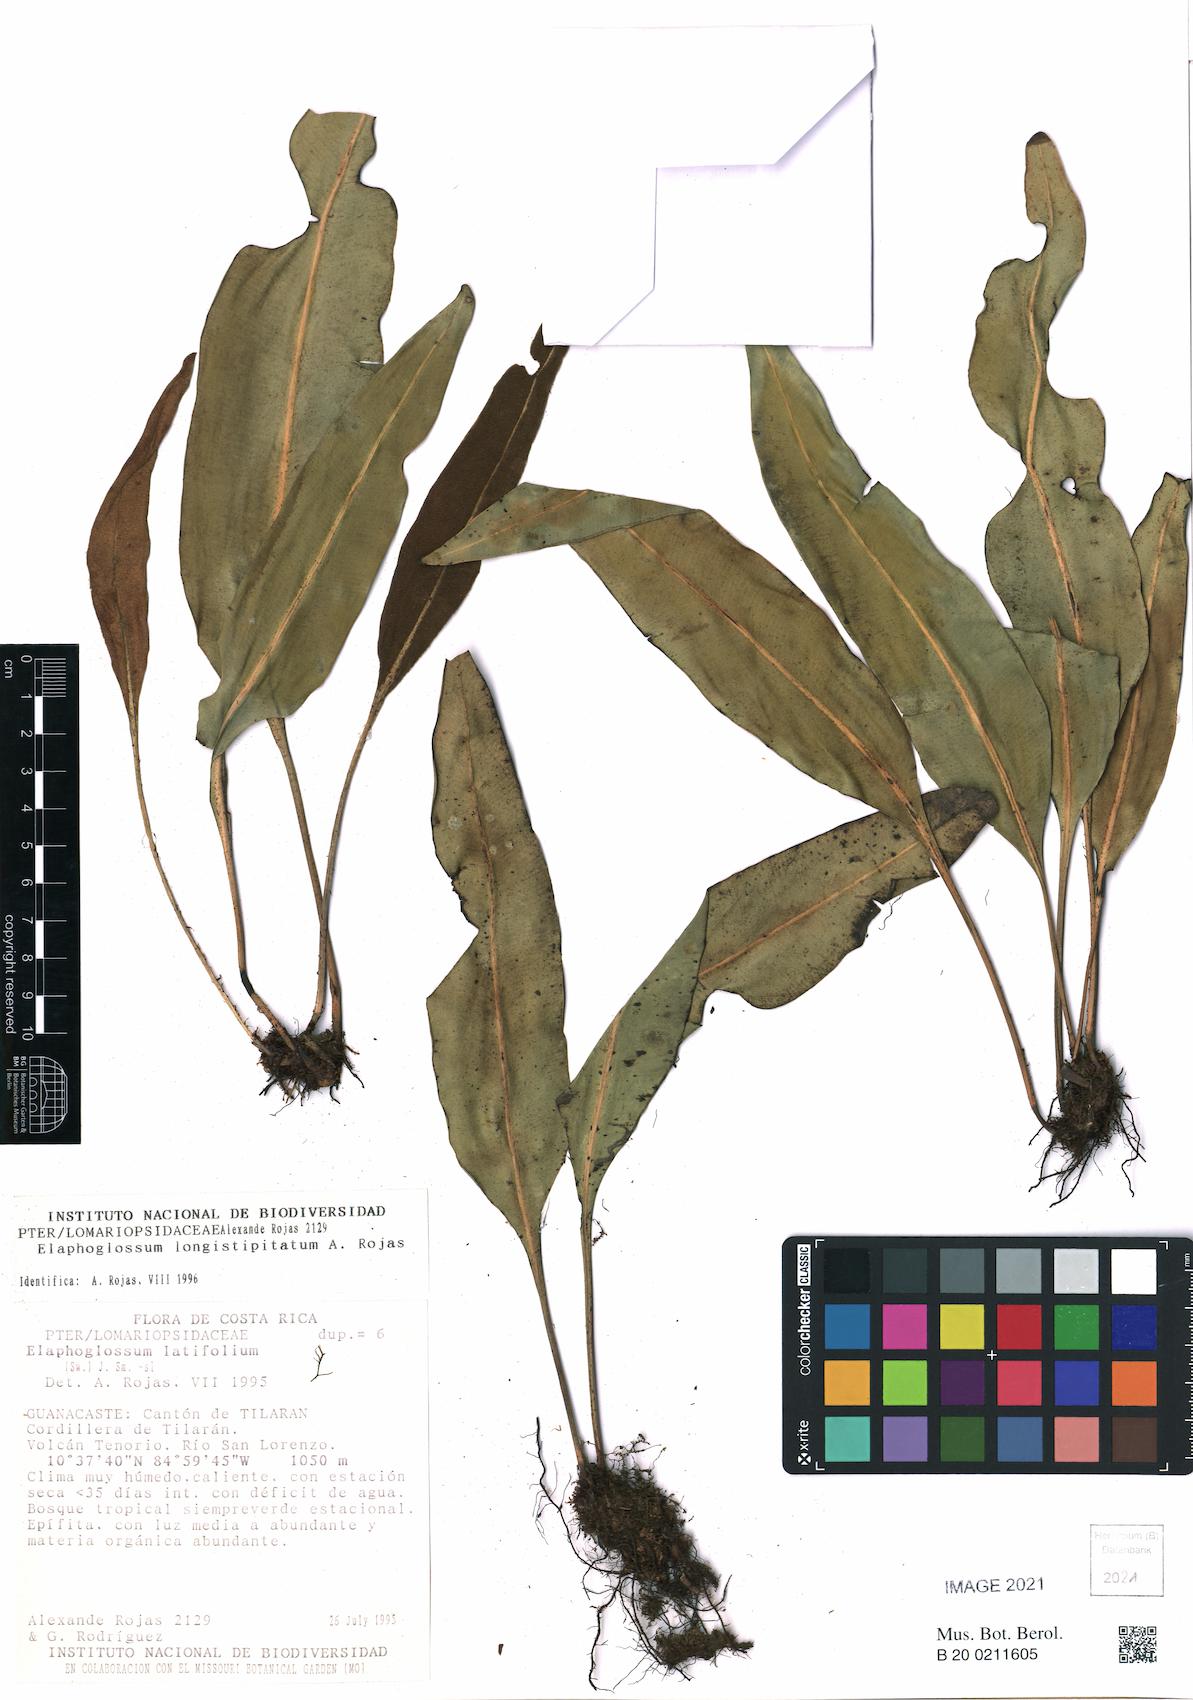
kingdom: Plantae
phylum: Tracheophyta
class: Polypodiopsida
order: Polypodiales
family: Dryopteridaceae
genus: Elaphoglossum
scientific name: Elaphoglossum latifolium
